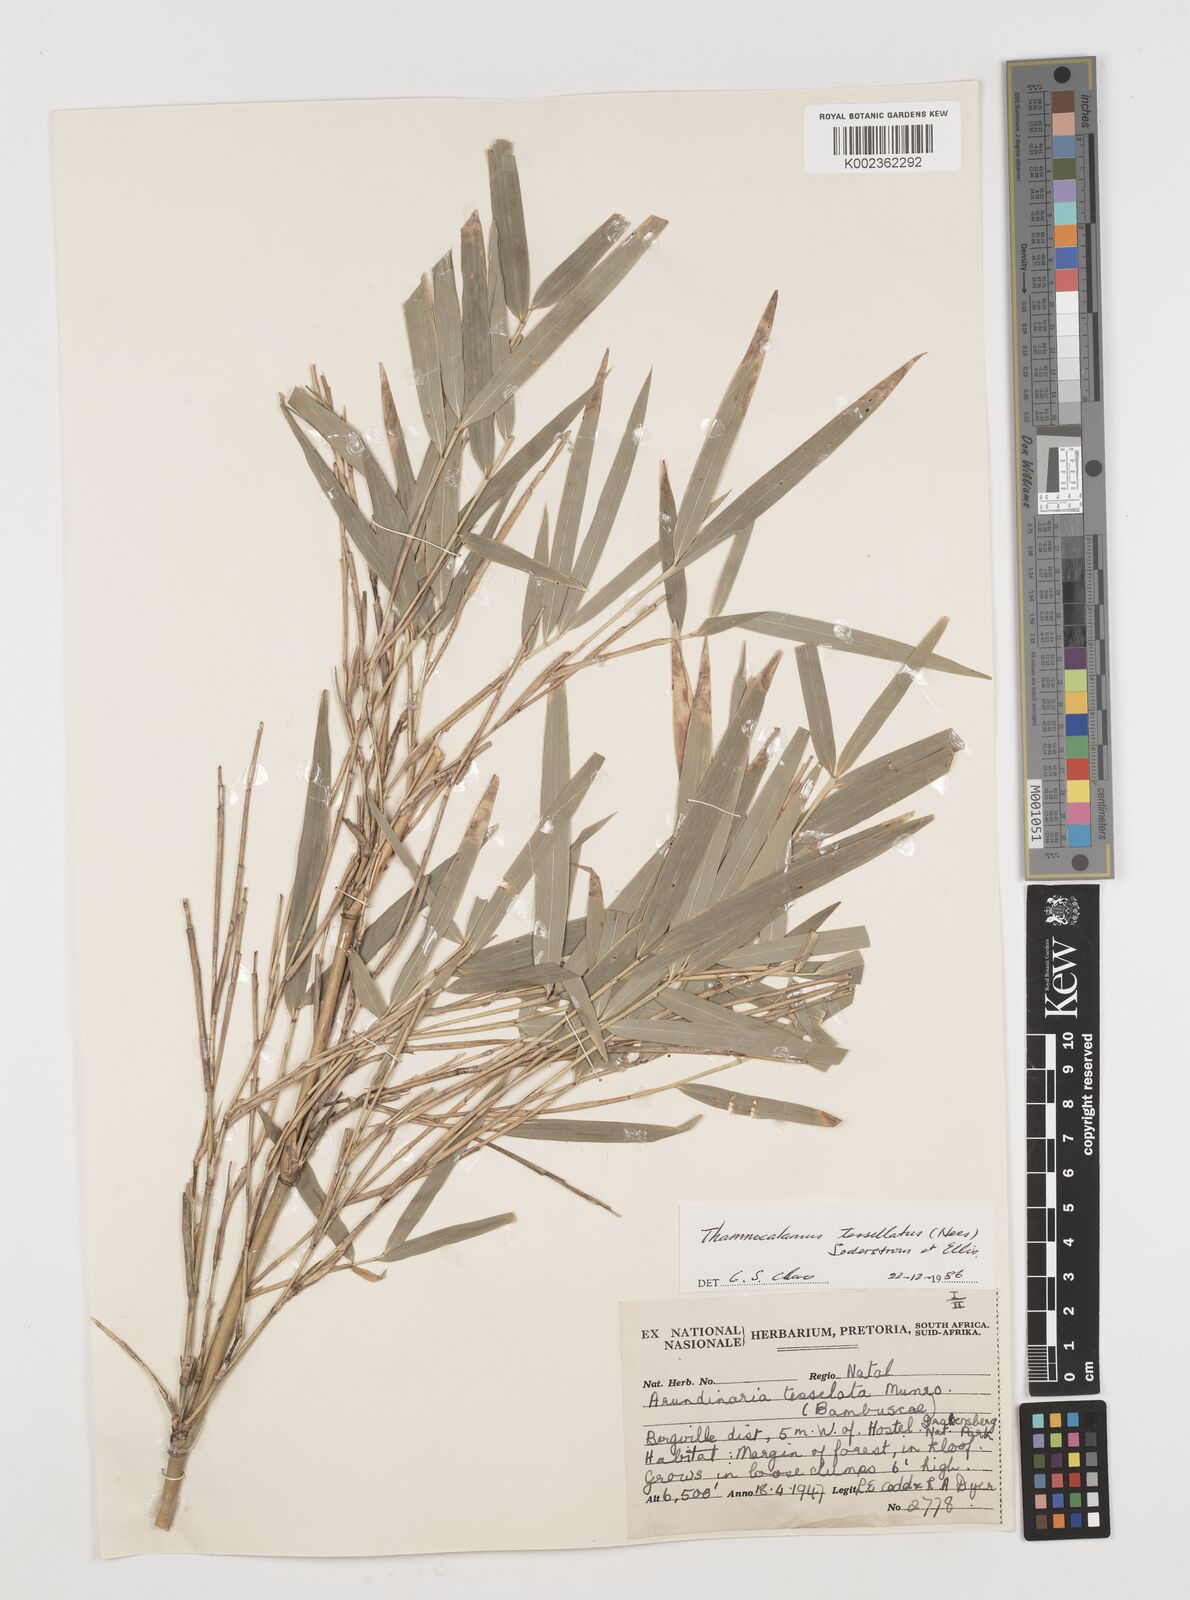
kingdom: Plantae
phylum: Tracheophyta
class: Liliopsida
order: Poales
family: Poaceae
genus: Bergbambos
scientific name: Bergbambos tessellata
